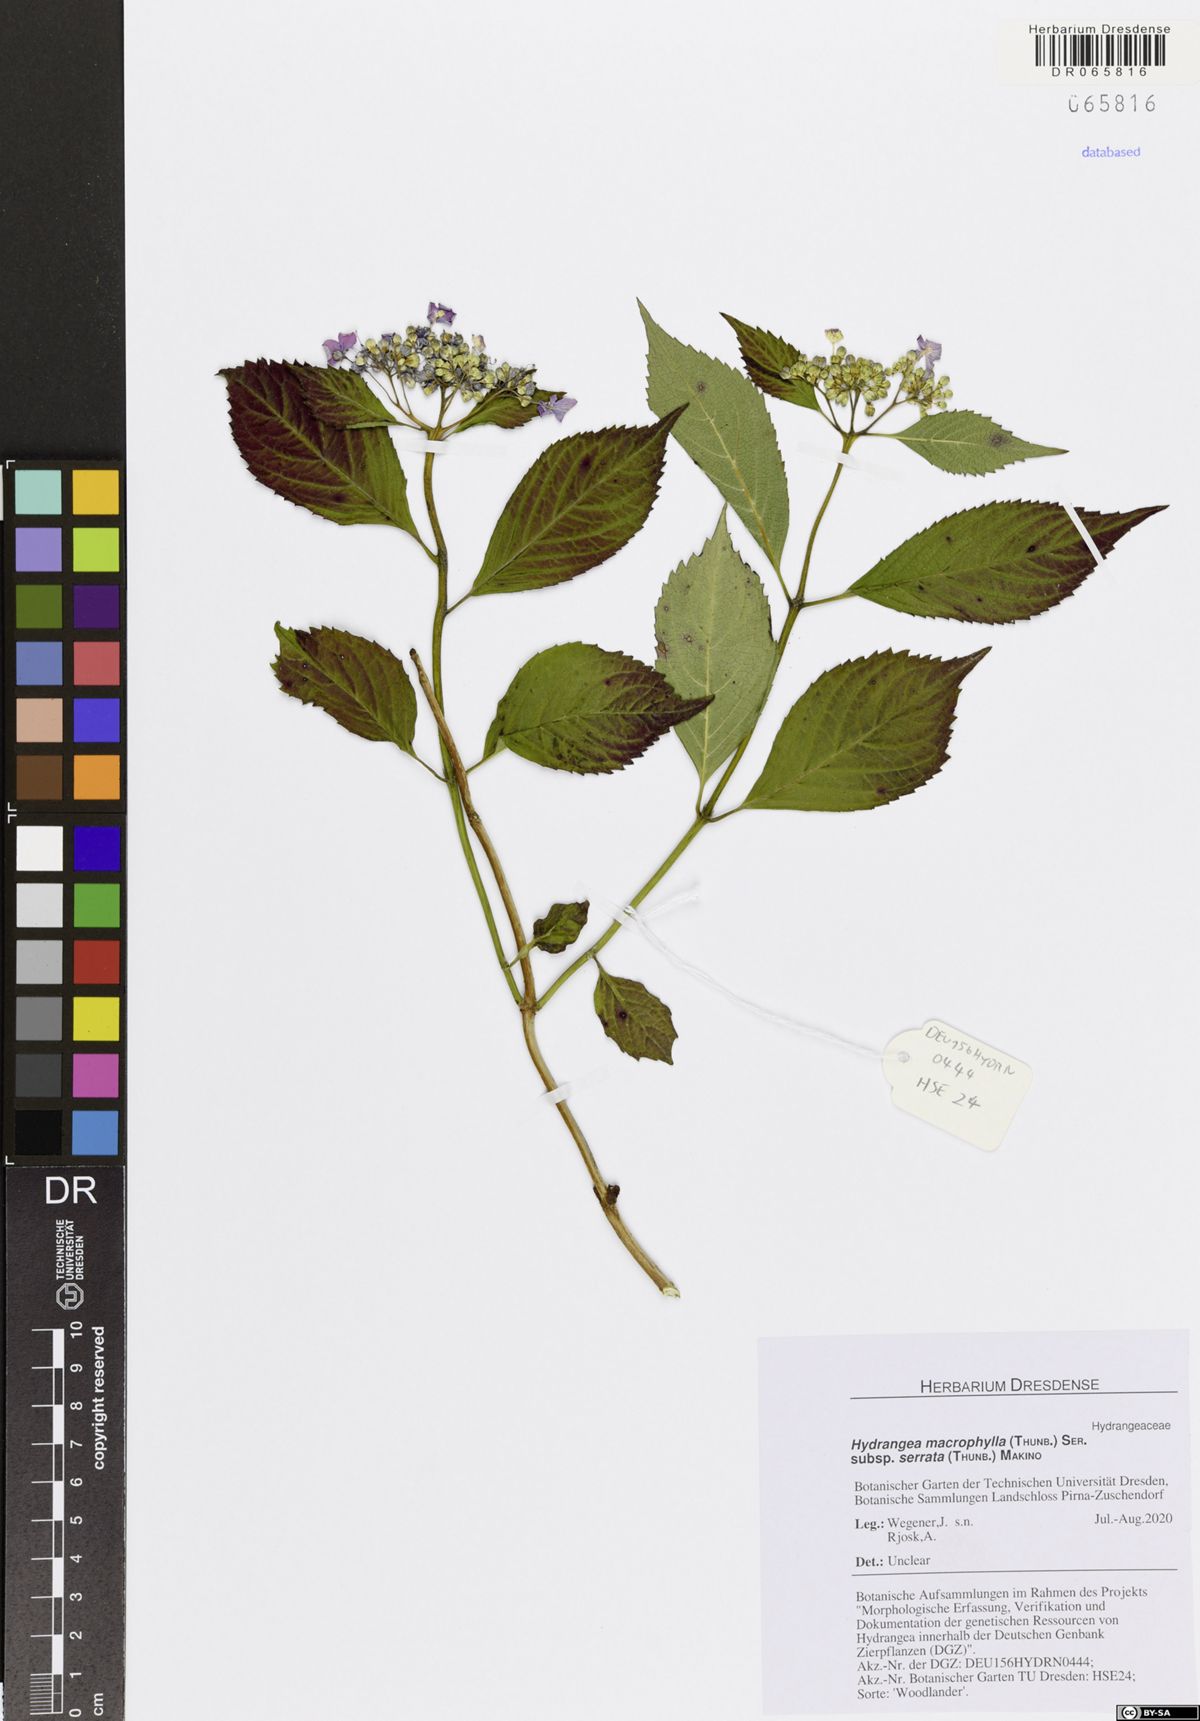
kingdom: Plantae
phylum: Tracheophyta
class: Magnoliopsida
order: Cornales
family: Hydrangeaceae
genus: Hydrangea
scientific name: Hydrangea serrata
